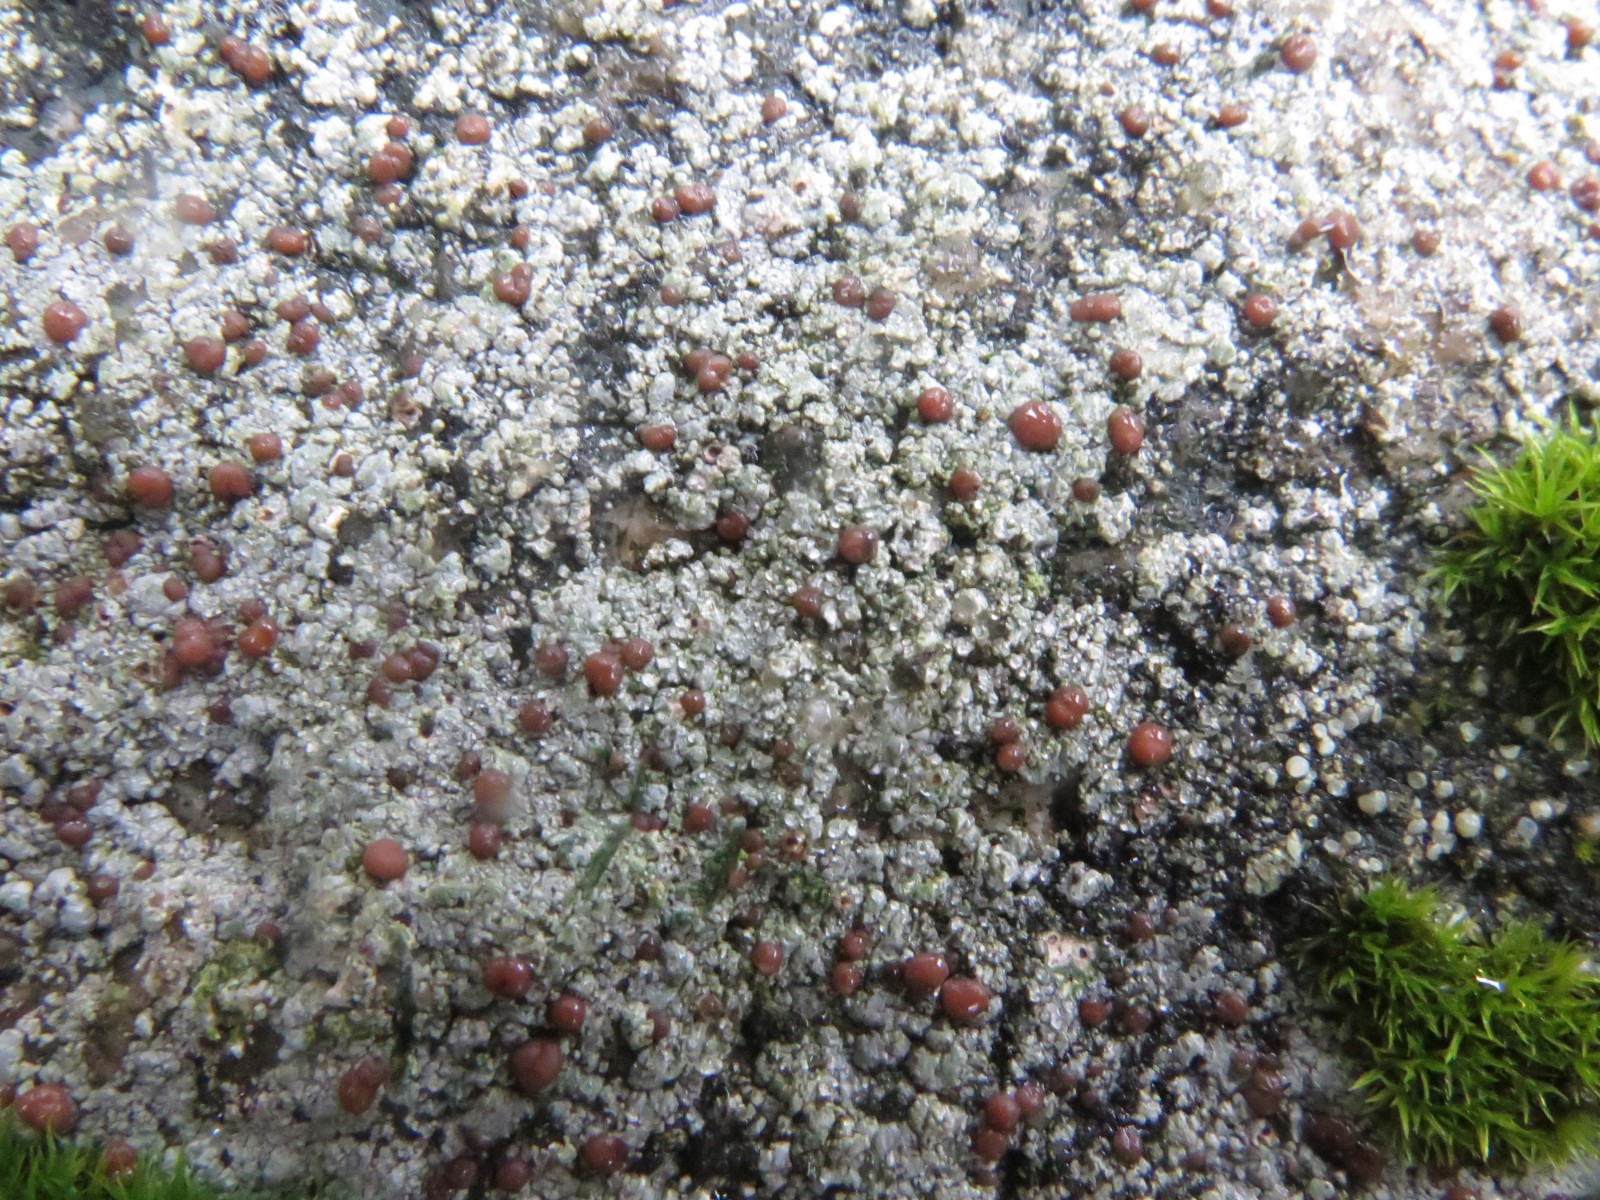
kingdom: Fungi
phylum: Ascomycota
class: Lecanoromycetes
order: Baeomycetales
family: Trapeliaceae
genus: Trapelia
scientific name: Trapelia coarctata
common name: hvidrandet brunskivelav
